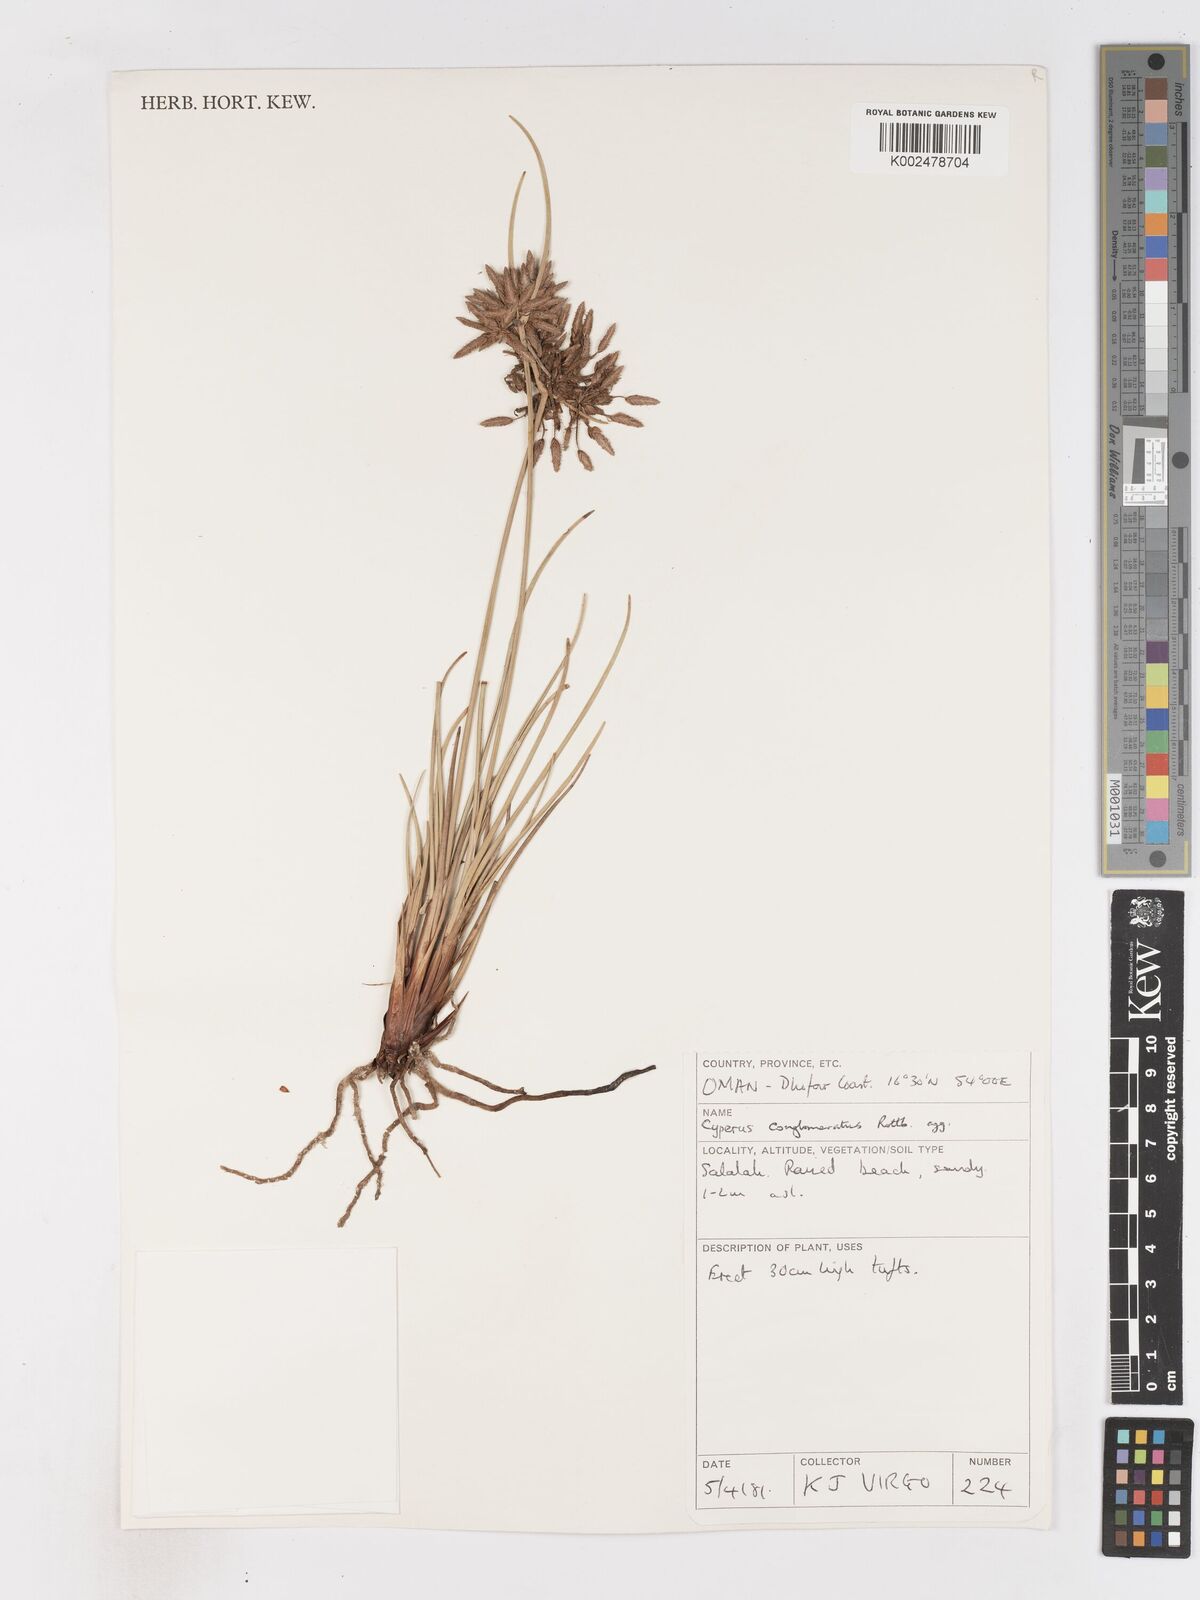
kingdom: Plantae
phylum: Tracheophyta
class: Liliopsida
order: Poales
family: Cyperaceae
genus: Cyperus
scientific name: Cyperus conglomeratus
